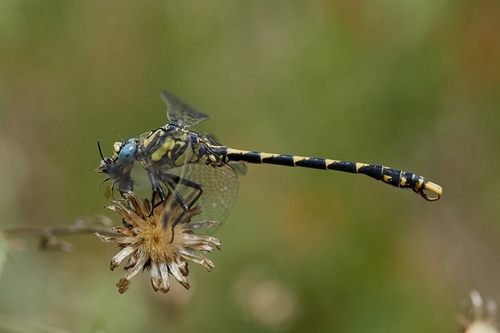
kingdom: Animalia
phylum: Arthropoda
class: Insecta
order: Odonata
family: Gomphidae
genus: Onychogomphus
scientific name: Onychogomphus uncatus
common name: Large pincertail
